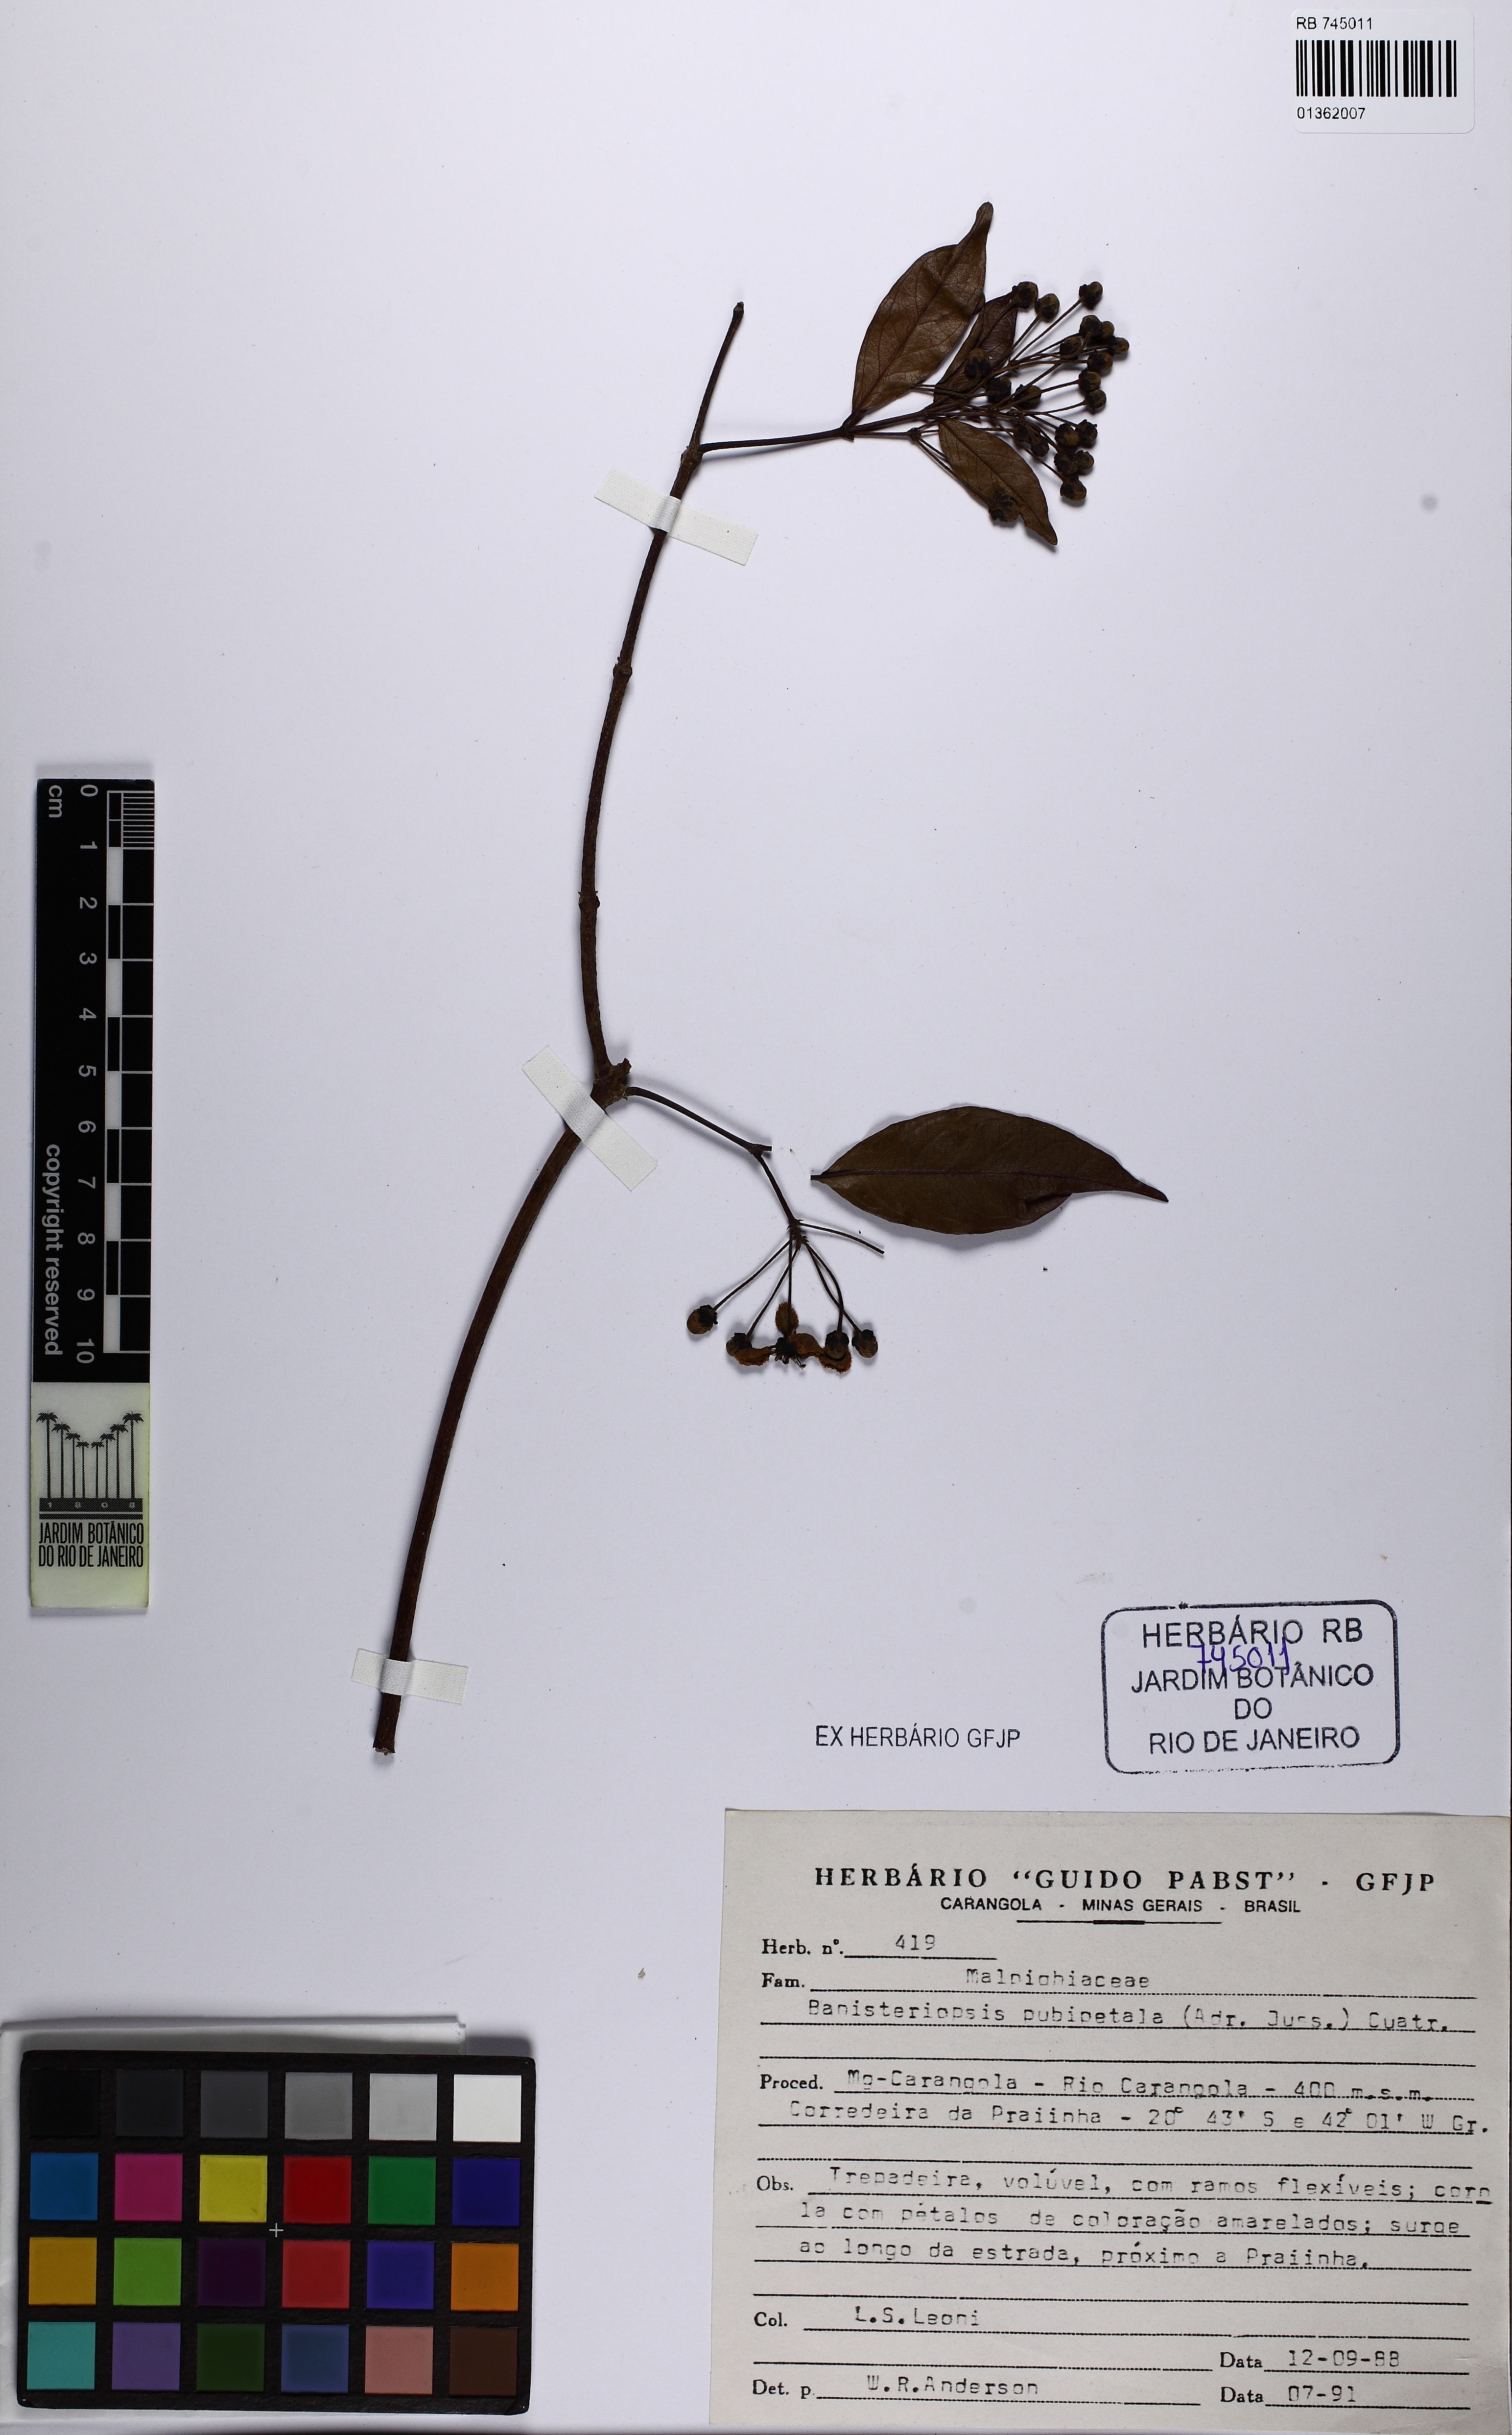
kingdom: Plantae
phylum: Tracheophyta
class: Magnoliopsida
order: Malpighiales
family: Malpighiaceae
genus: Diplopterys
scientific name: Diplopterys pubipetala
